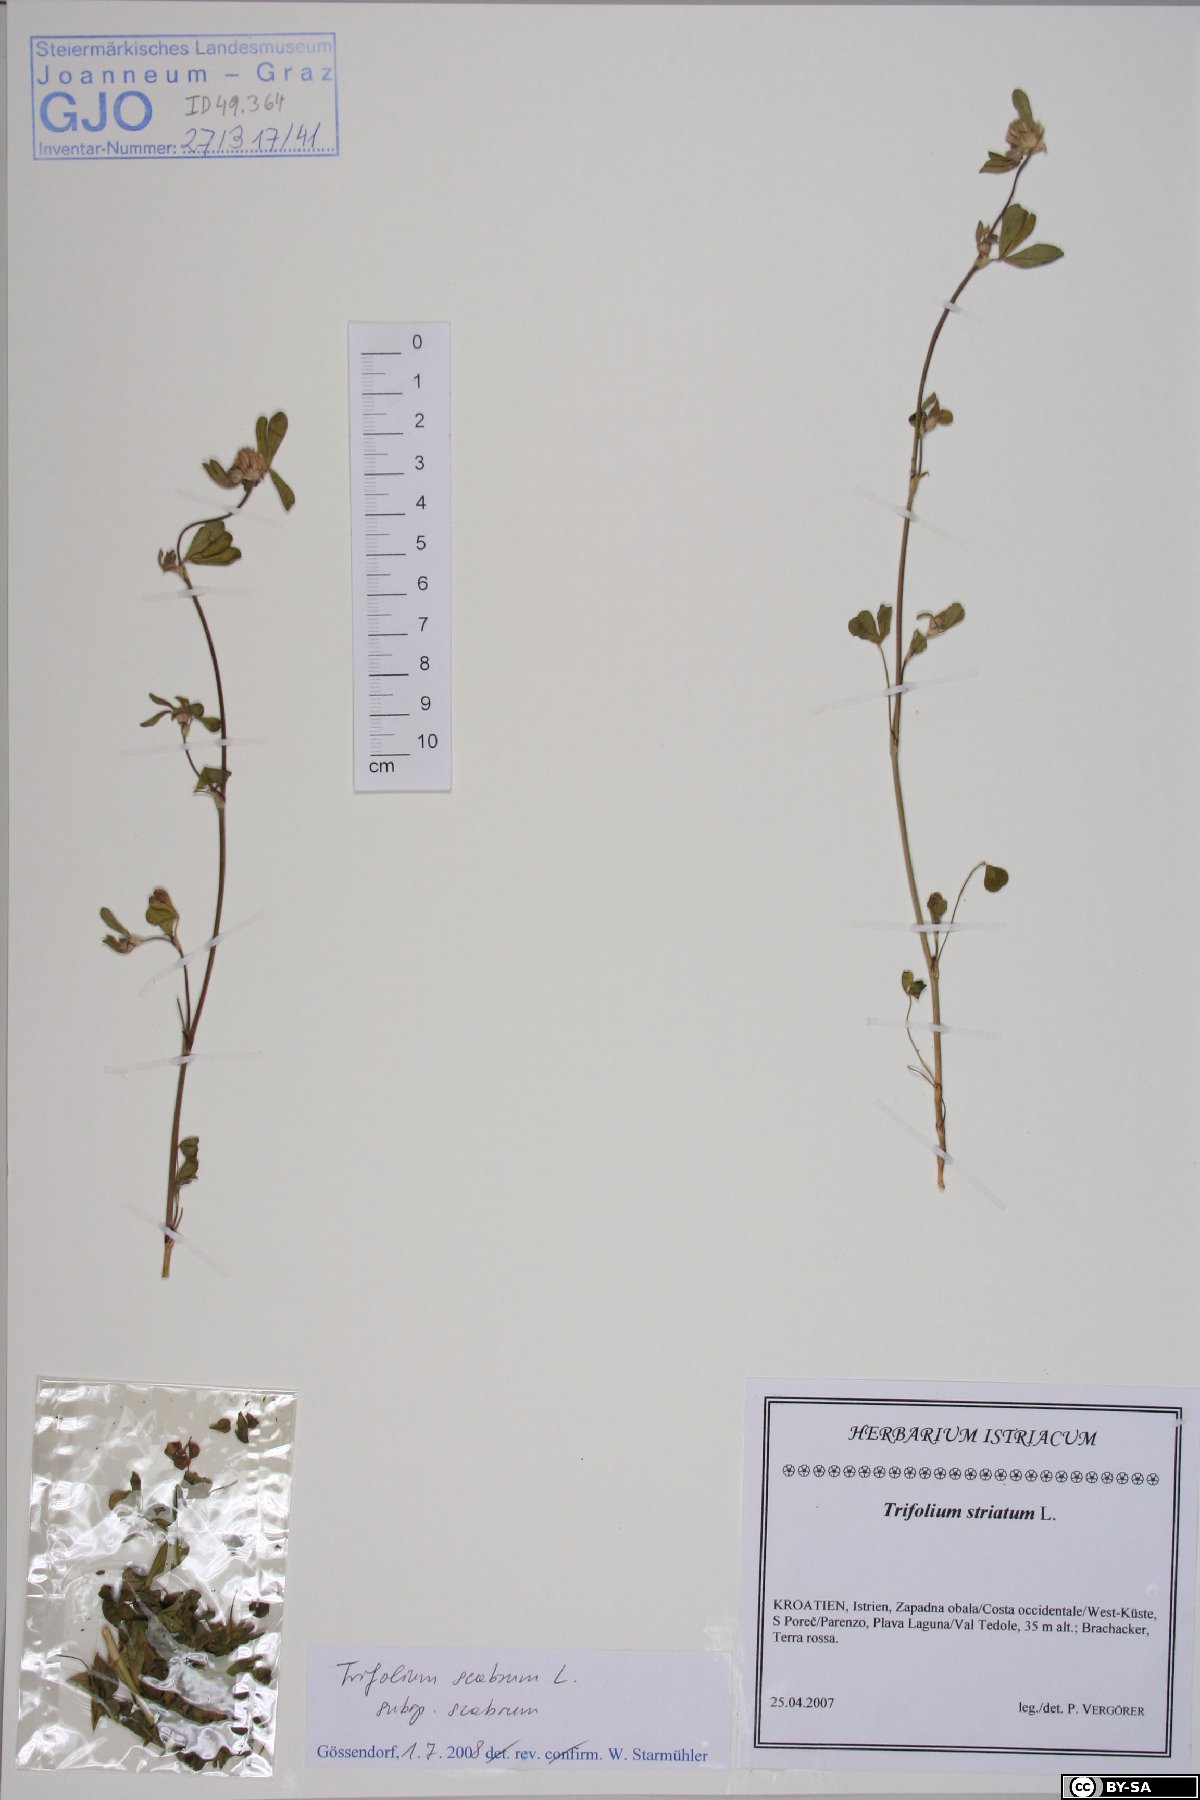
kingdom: Plantae
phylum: Tracheophyta
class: Magnoliopsida
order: Fabales
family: Fabaceae
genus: Trifolium
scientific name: Trifolium scabrum
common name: Rough clover
